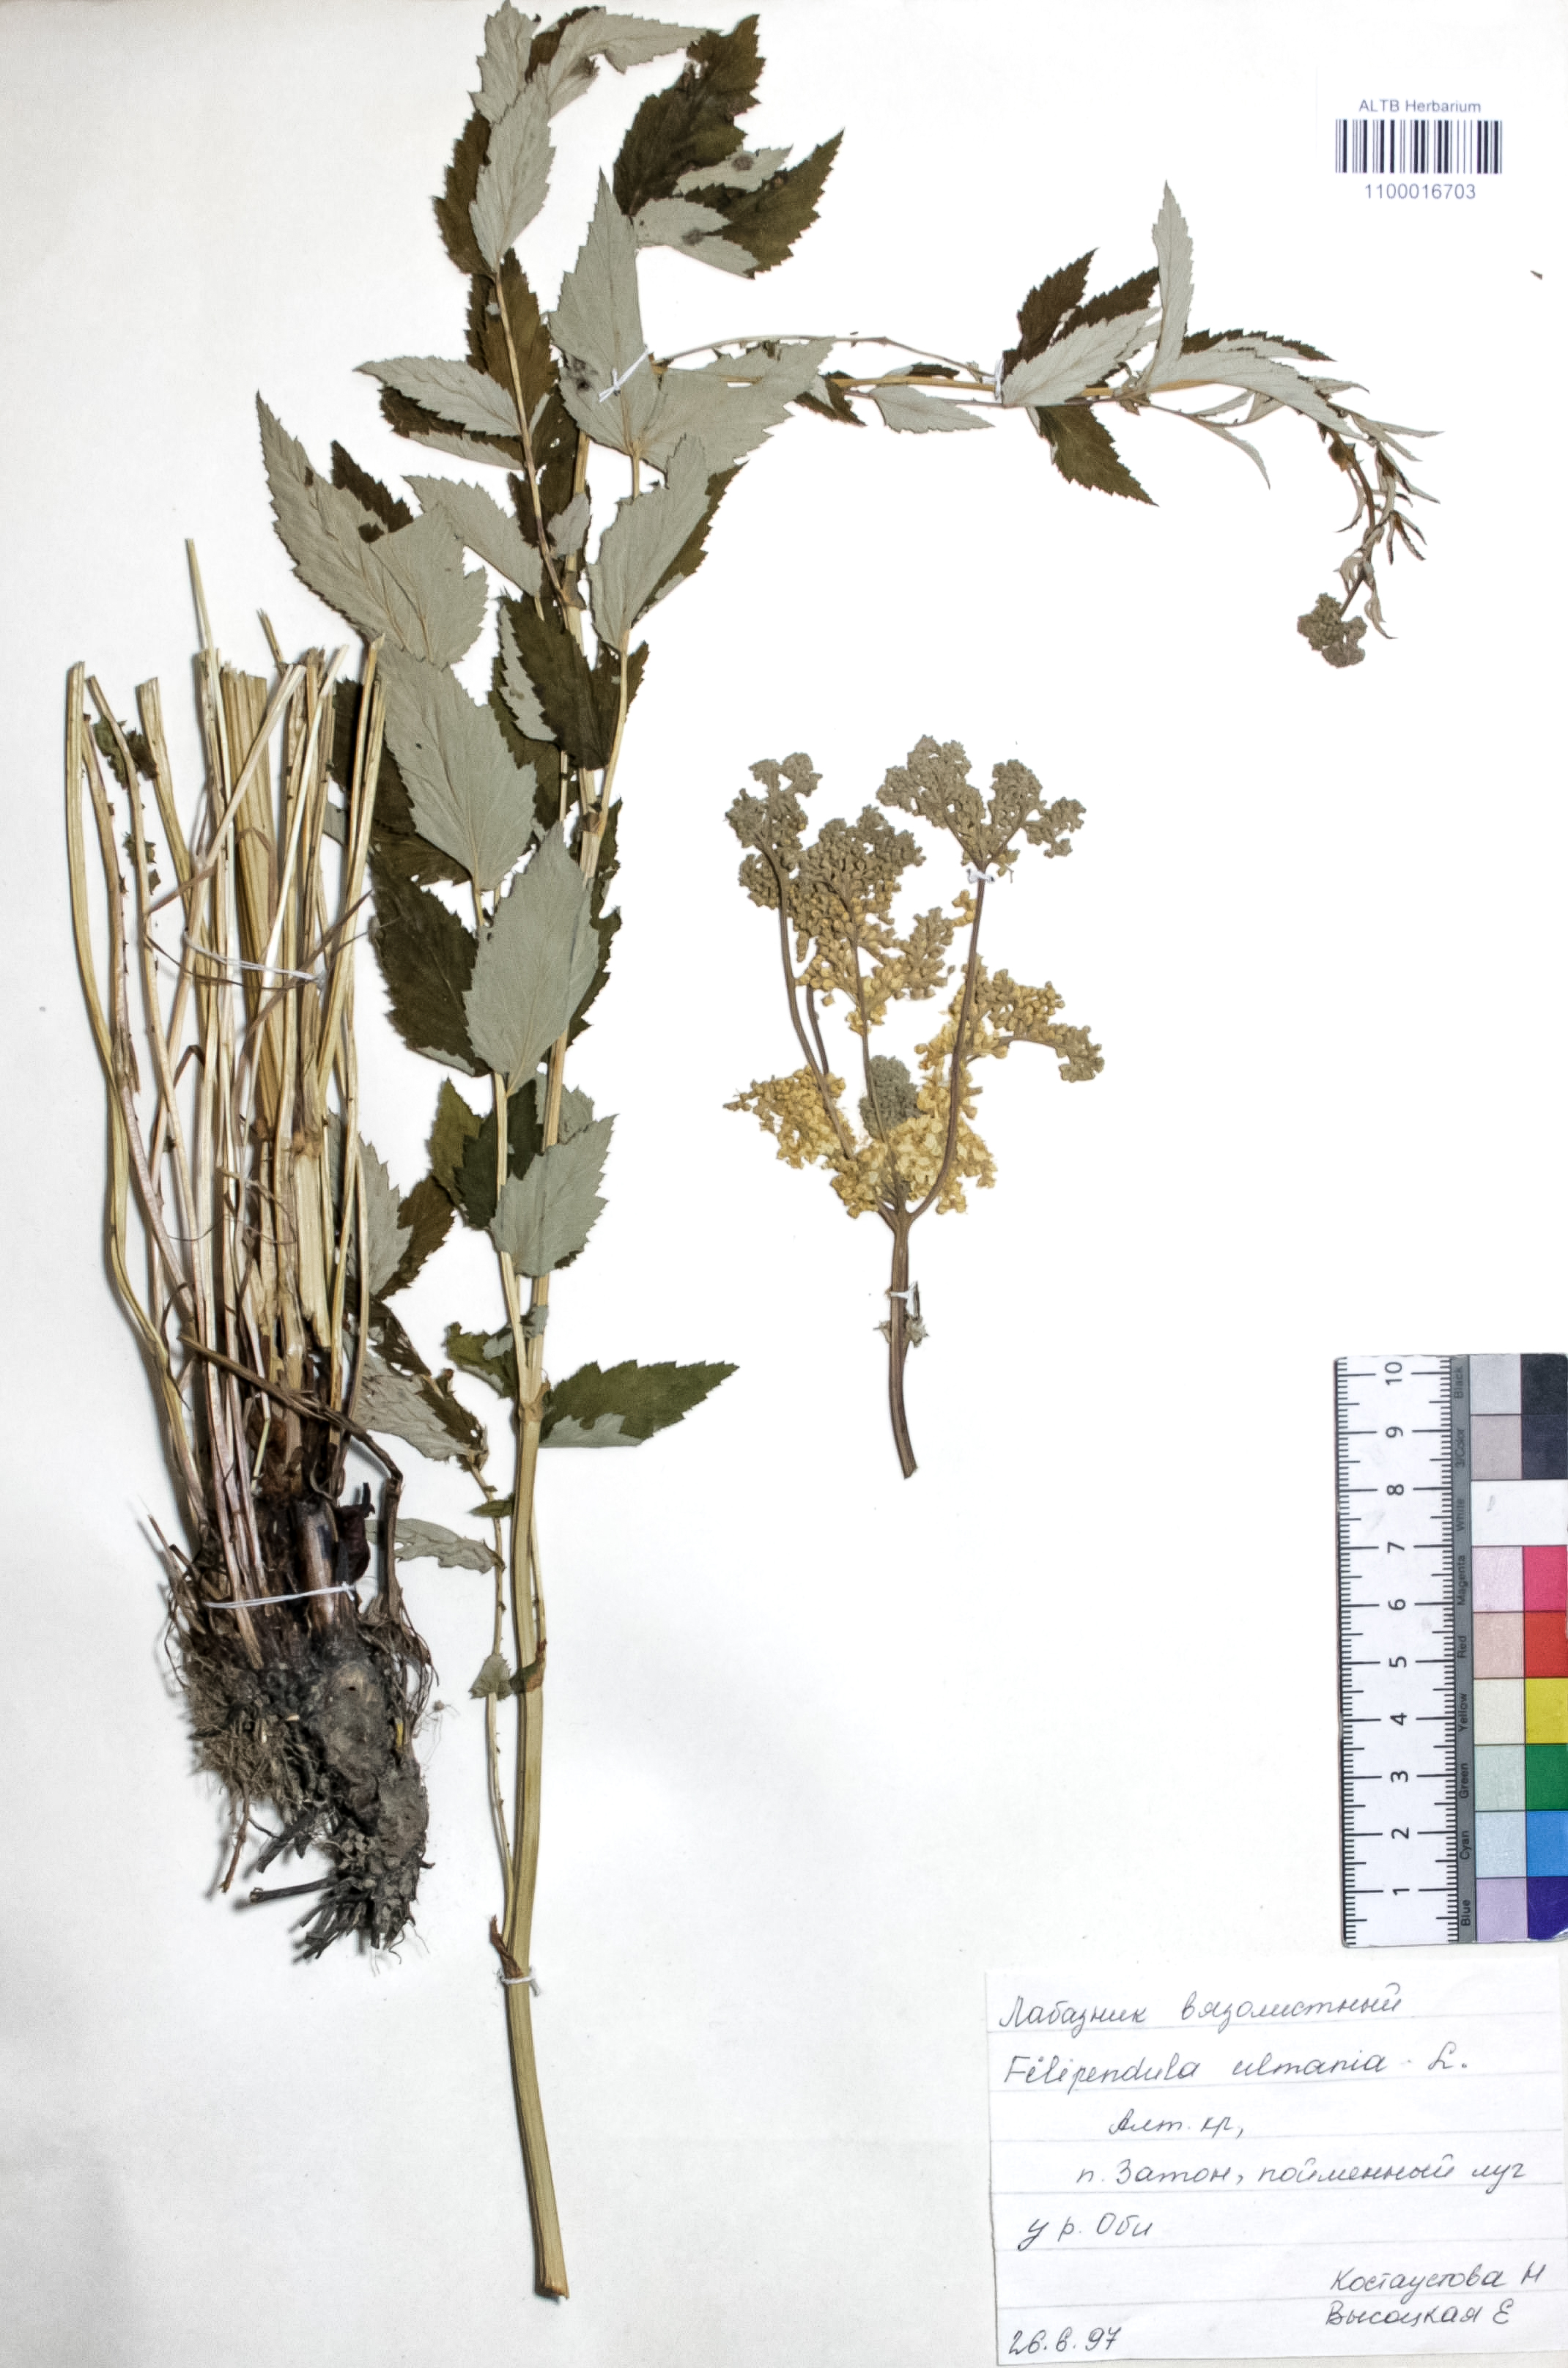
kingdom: Plantae
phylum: Tracheophyta
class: Magnoliopsida
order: Rosales
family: Rosaceae
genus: Filipendula
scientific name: Filipendula ulmaria
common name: Meadowsweet
